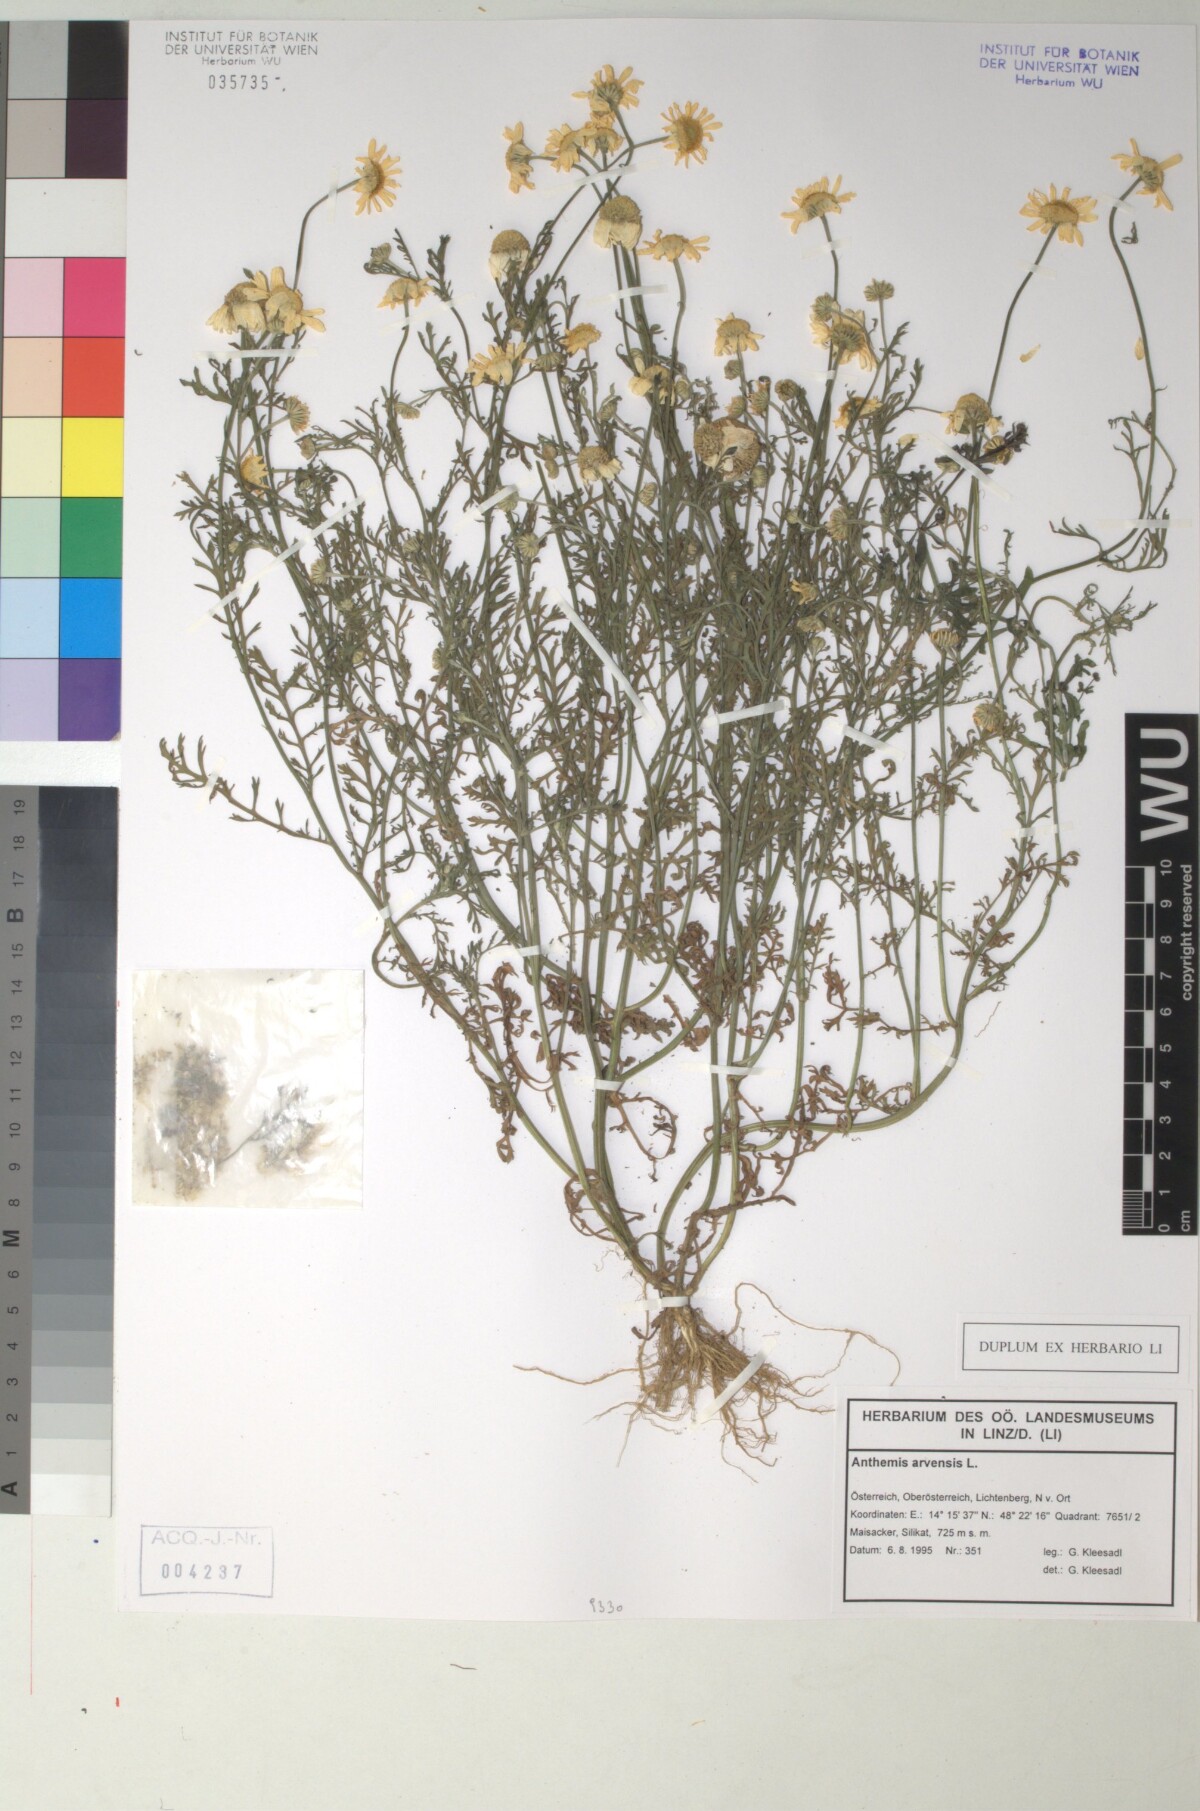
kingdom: Plantae
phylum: Tracheophyta
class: Magnoliopsida
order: Asterales
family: Asteraceae
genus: Anthemis
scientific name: Anthemis arvensis
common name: Corn chamomile
